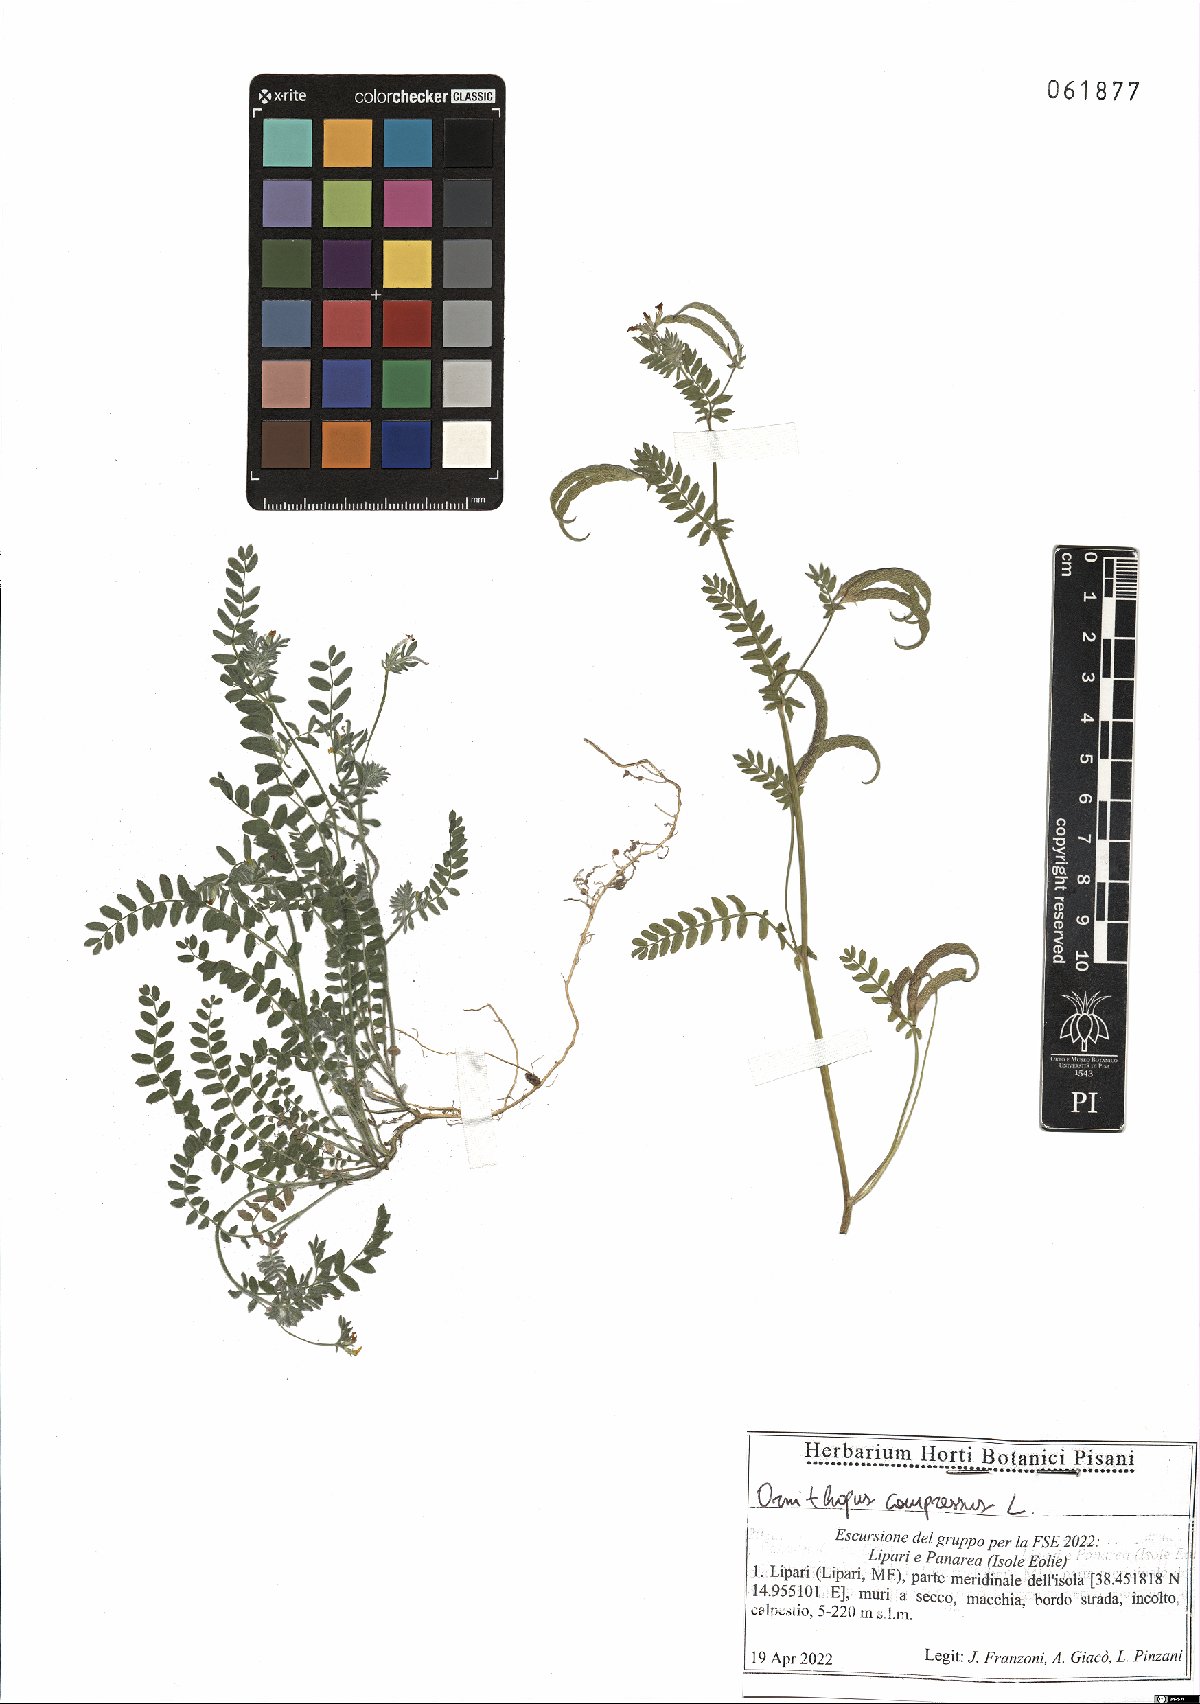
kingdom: Plantae
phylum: Tracheophyta
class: Magnoliopsida
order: Fabales
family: Fabaceae
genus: Ornithopus
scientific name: Ornithopus compressus
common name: Yellow serradella
